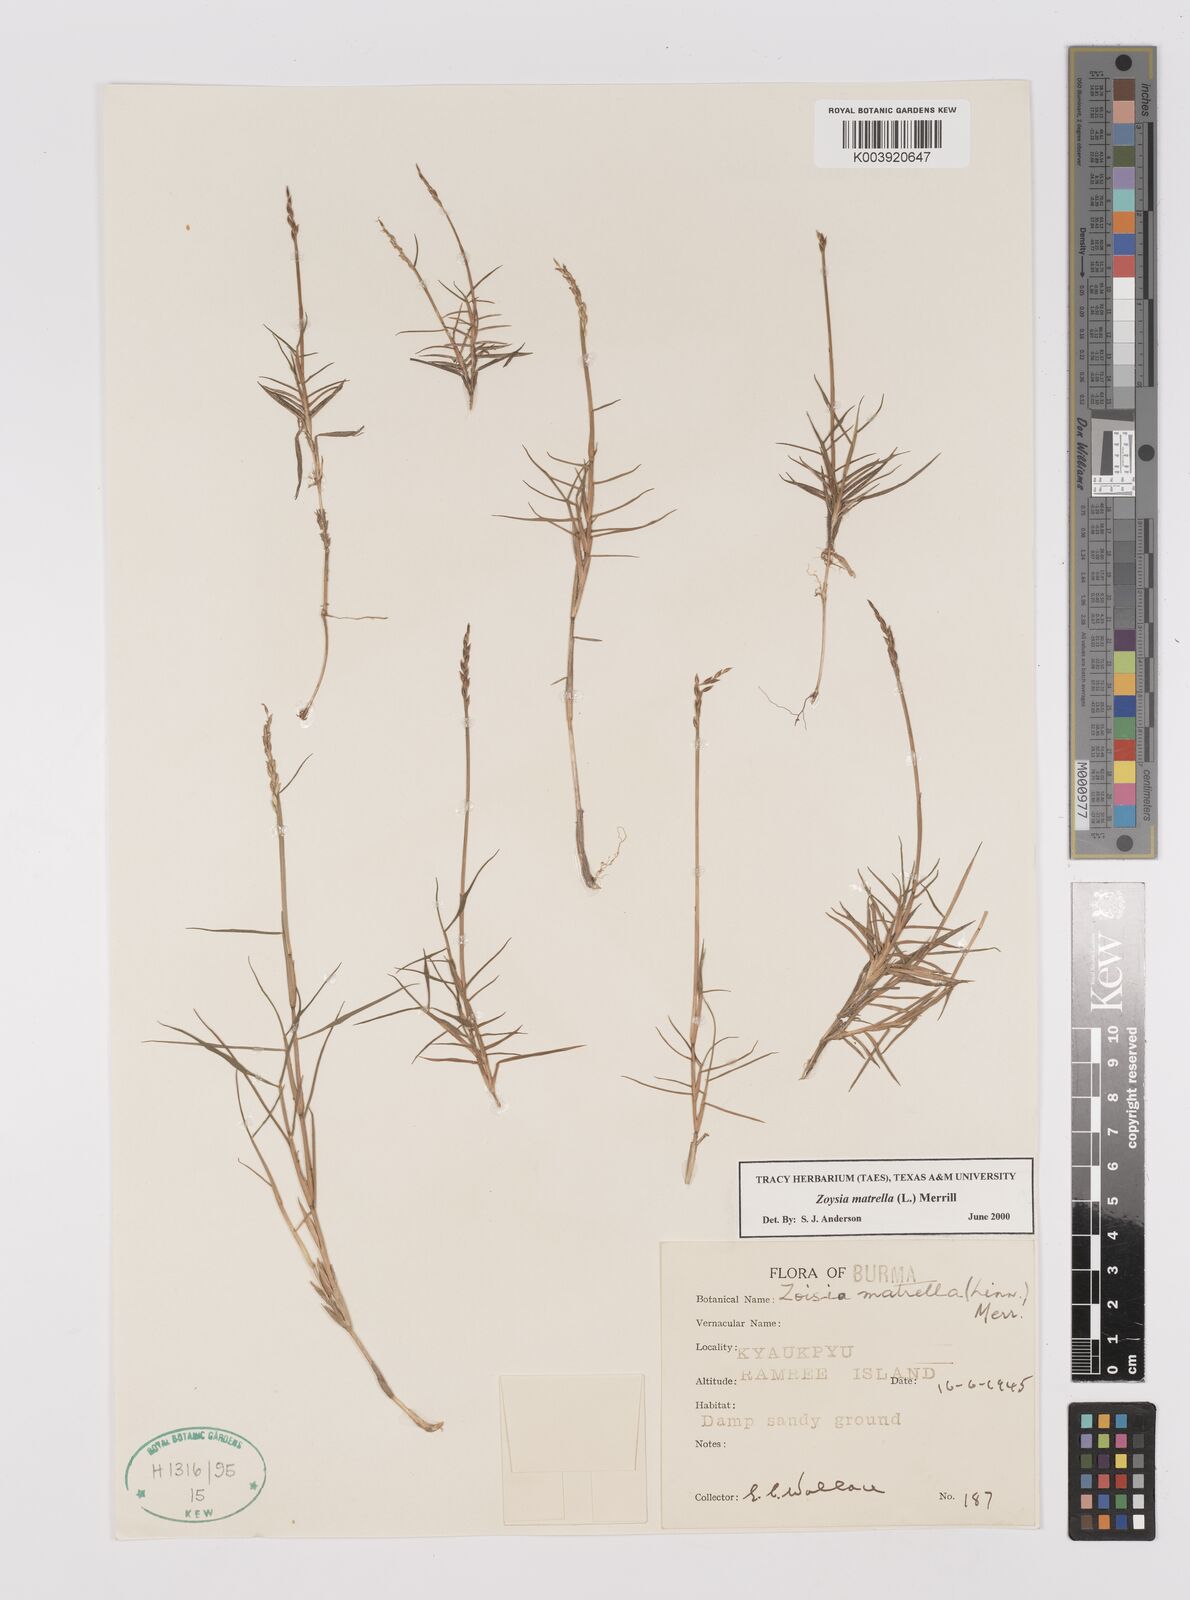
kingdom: Plantae
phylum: Tracheophyta
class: Liliopsida
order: Poales
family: Poaceae
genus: Zoysia
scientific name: Zoysia matrella
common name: Manila grass
